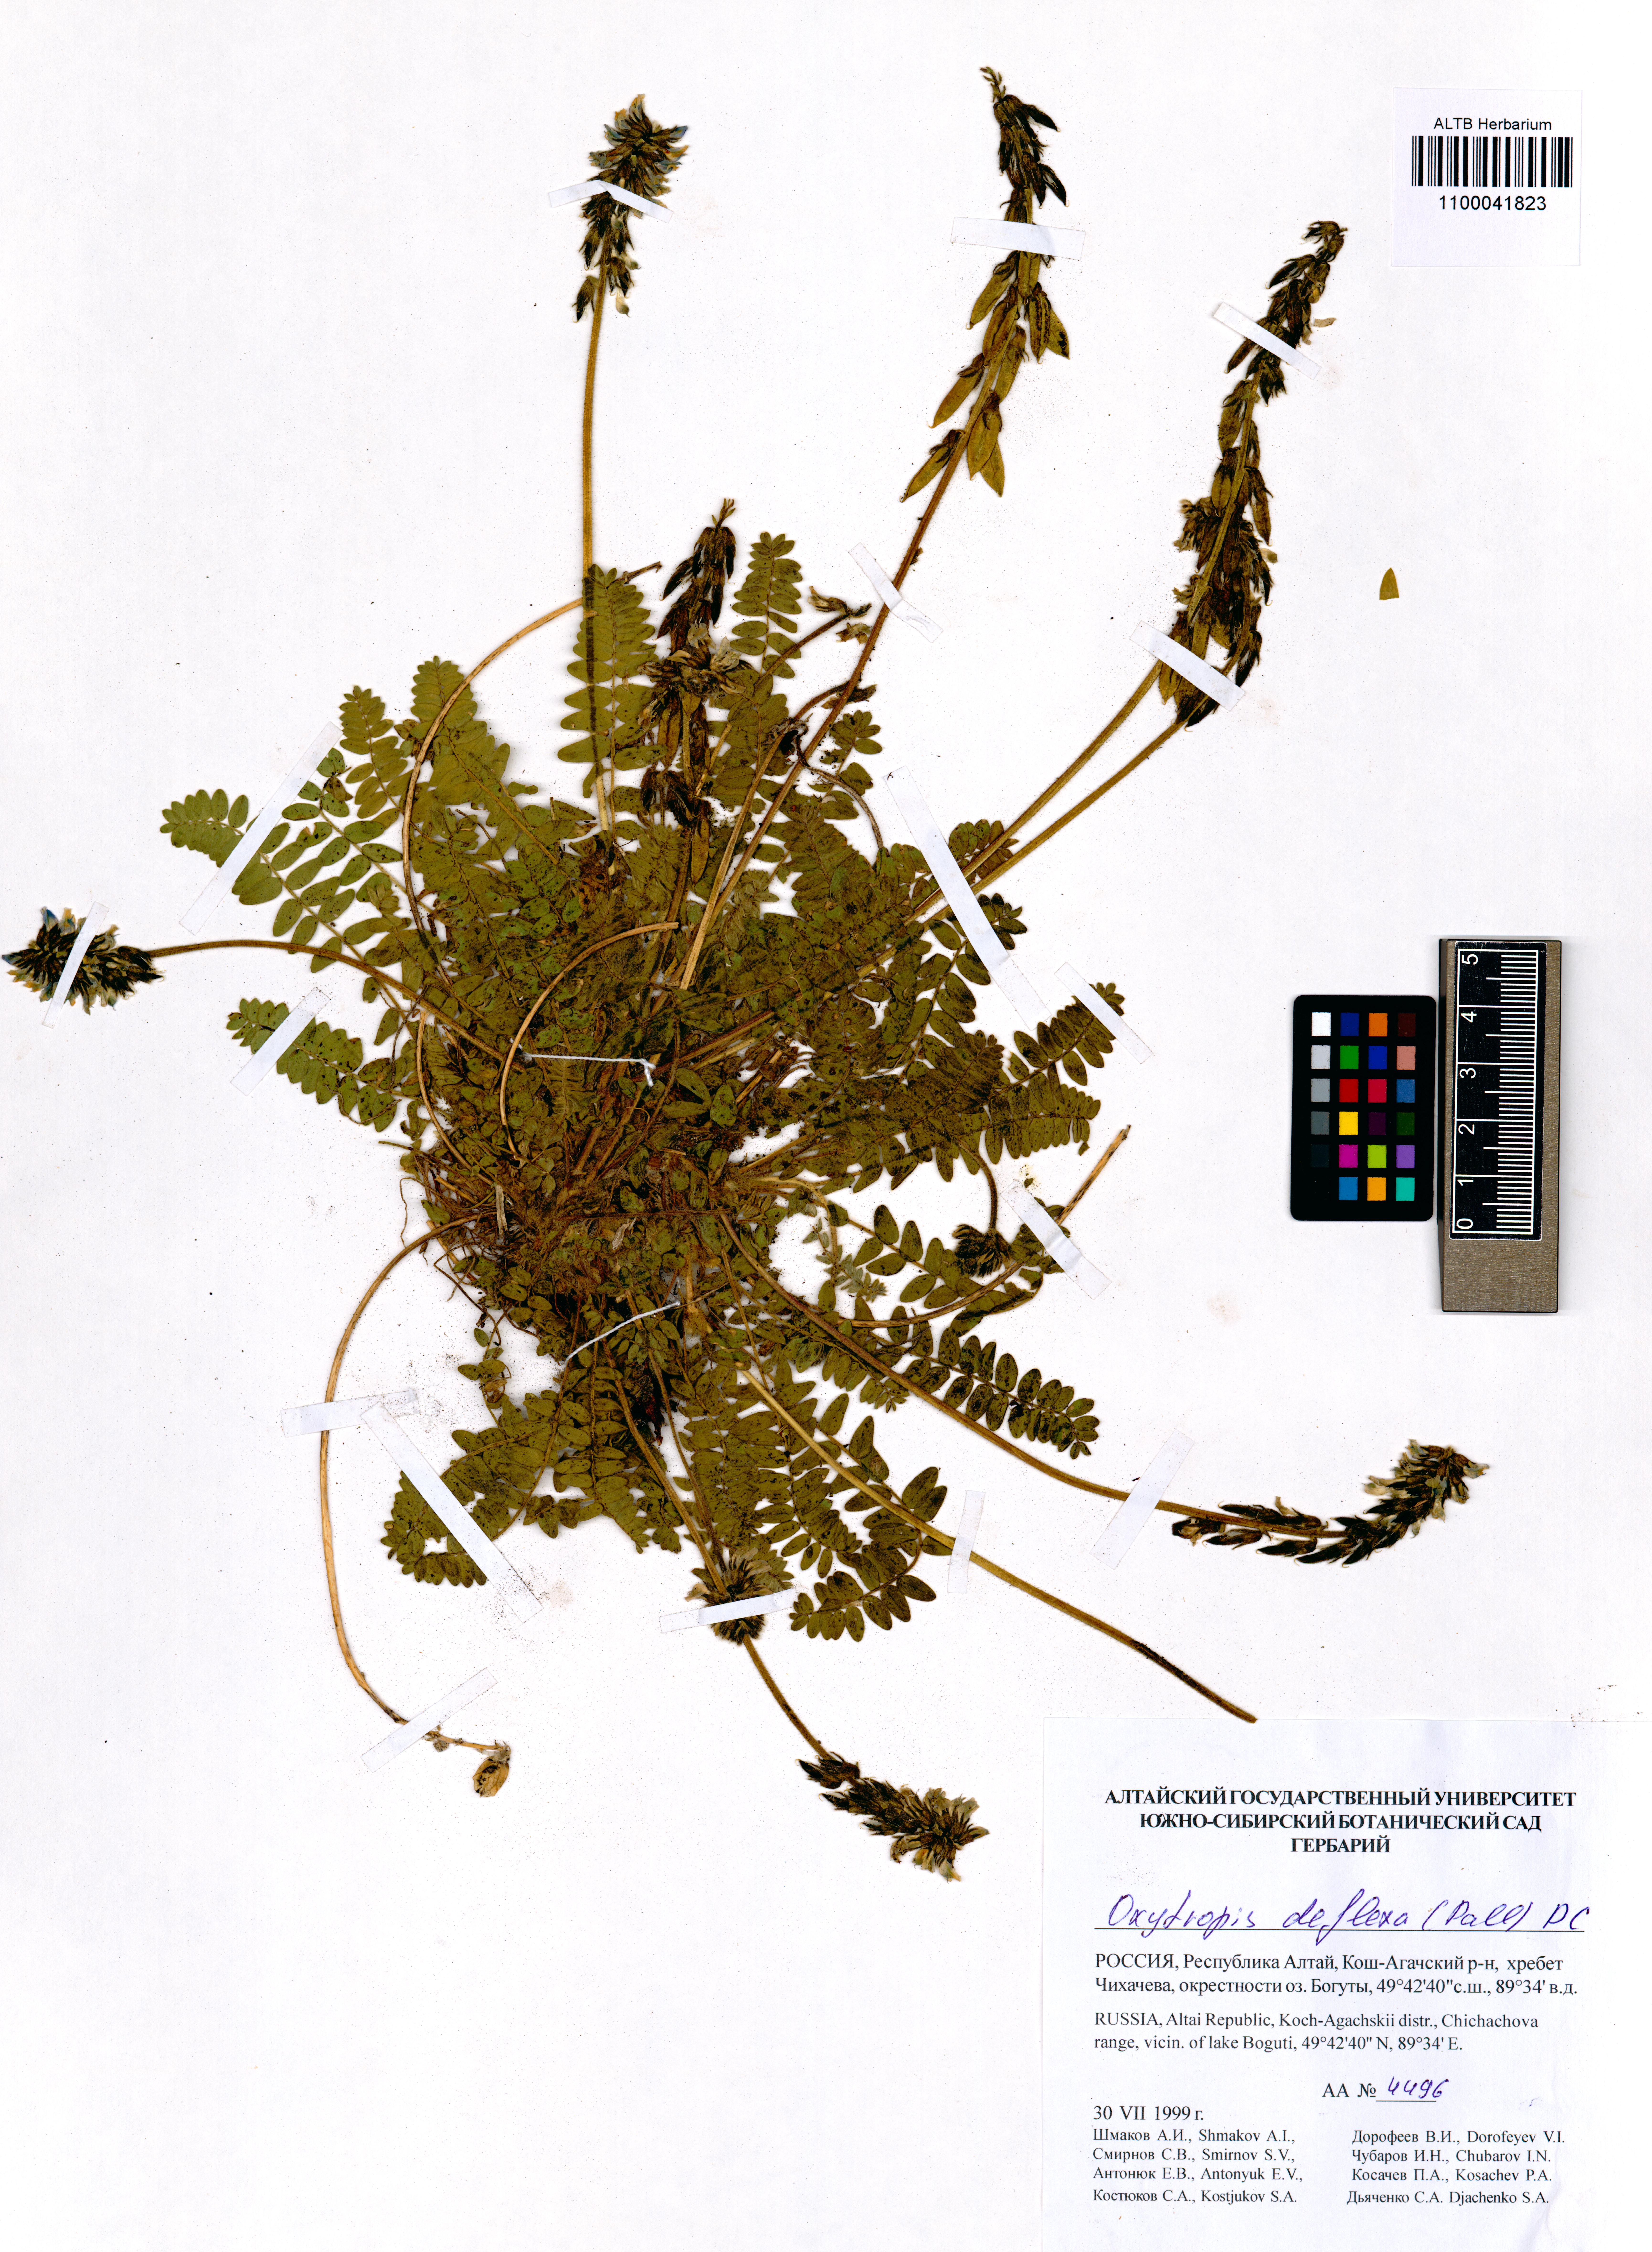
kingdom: Plantae
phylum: Tracheophyta
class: Magnoliopsida
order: Fabales
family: Fabaceae
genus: Oxytropis
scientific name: Oxytropis deflexa
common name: Stemmed oxytrope
